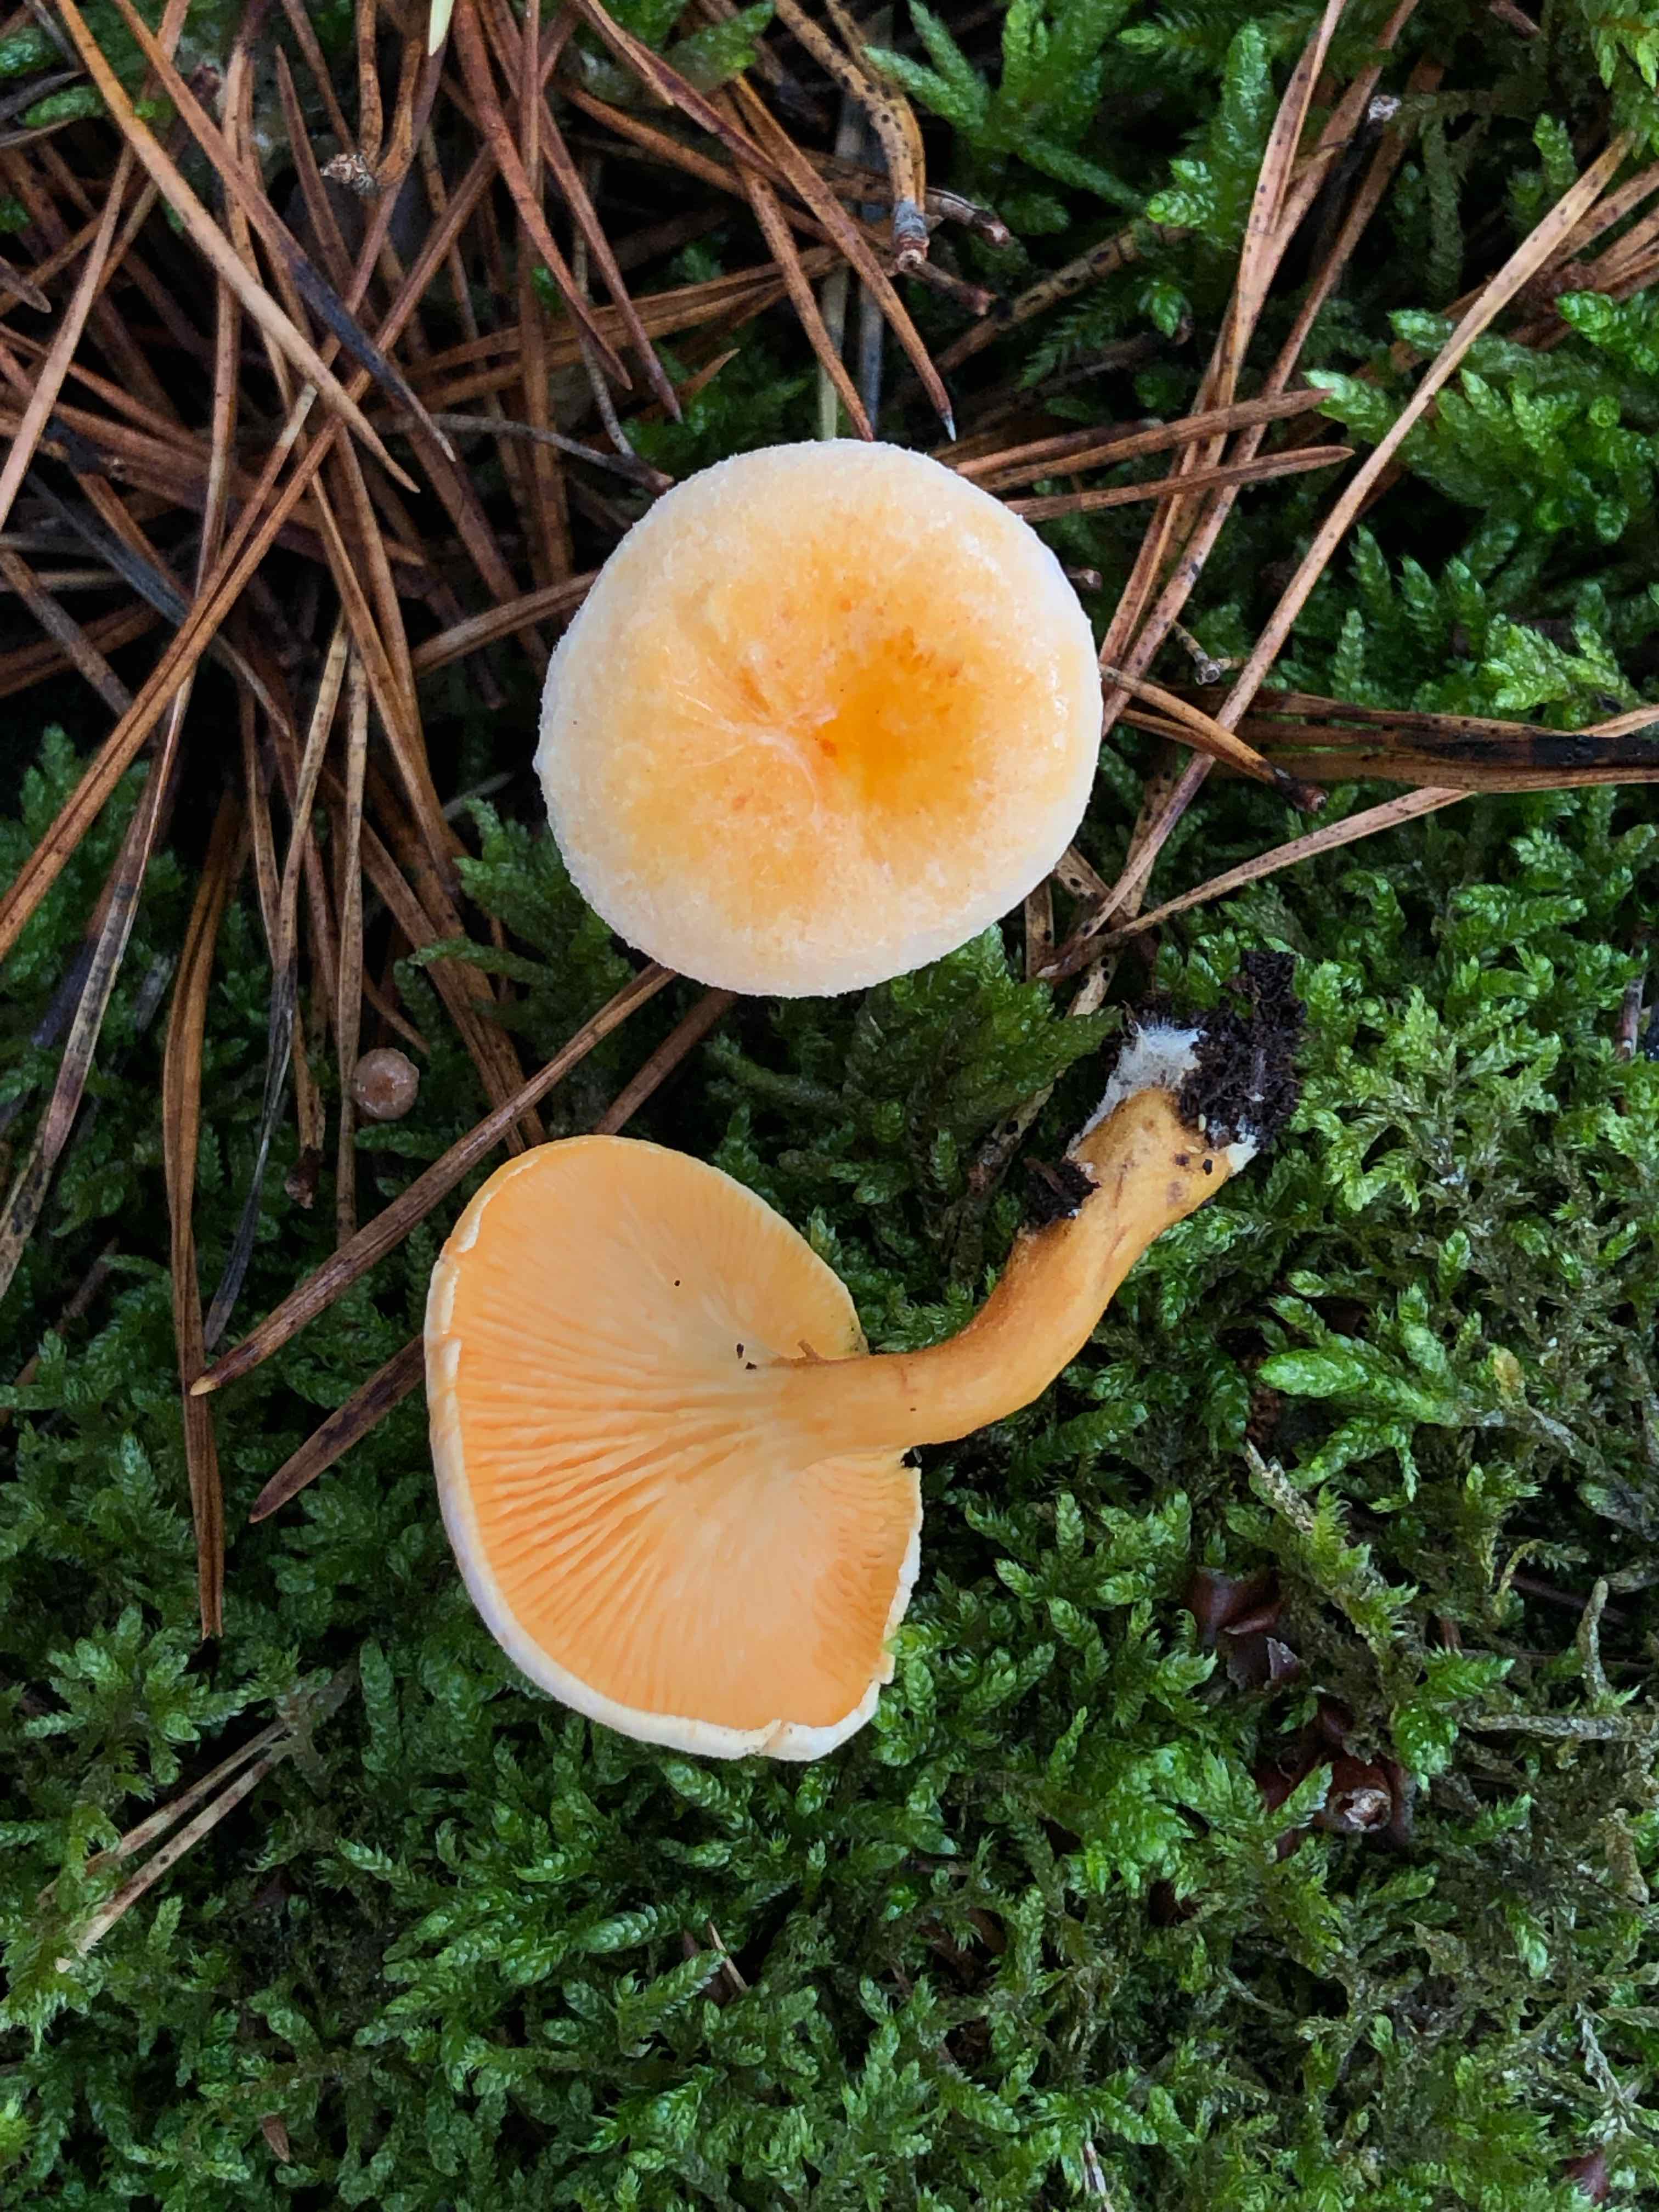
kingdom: Fungi
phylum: Basidiomycota
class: Agaricomycetes
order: Boletales
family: Hygrophoropsidaceae
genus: Hygrophoropsis
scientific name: Hygrophoropsis aurantiaca
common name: almindelig orangekantarel
